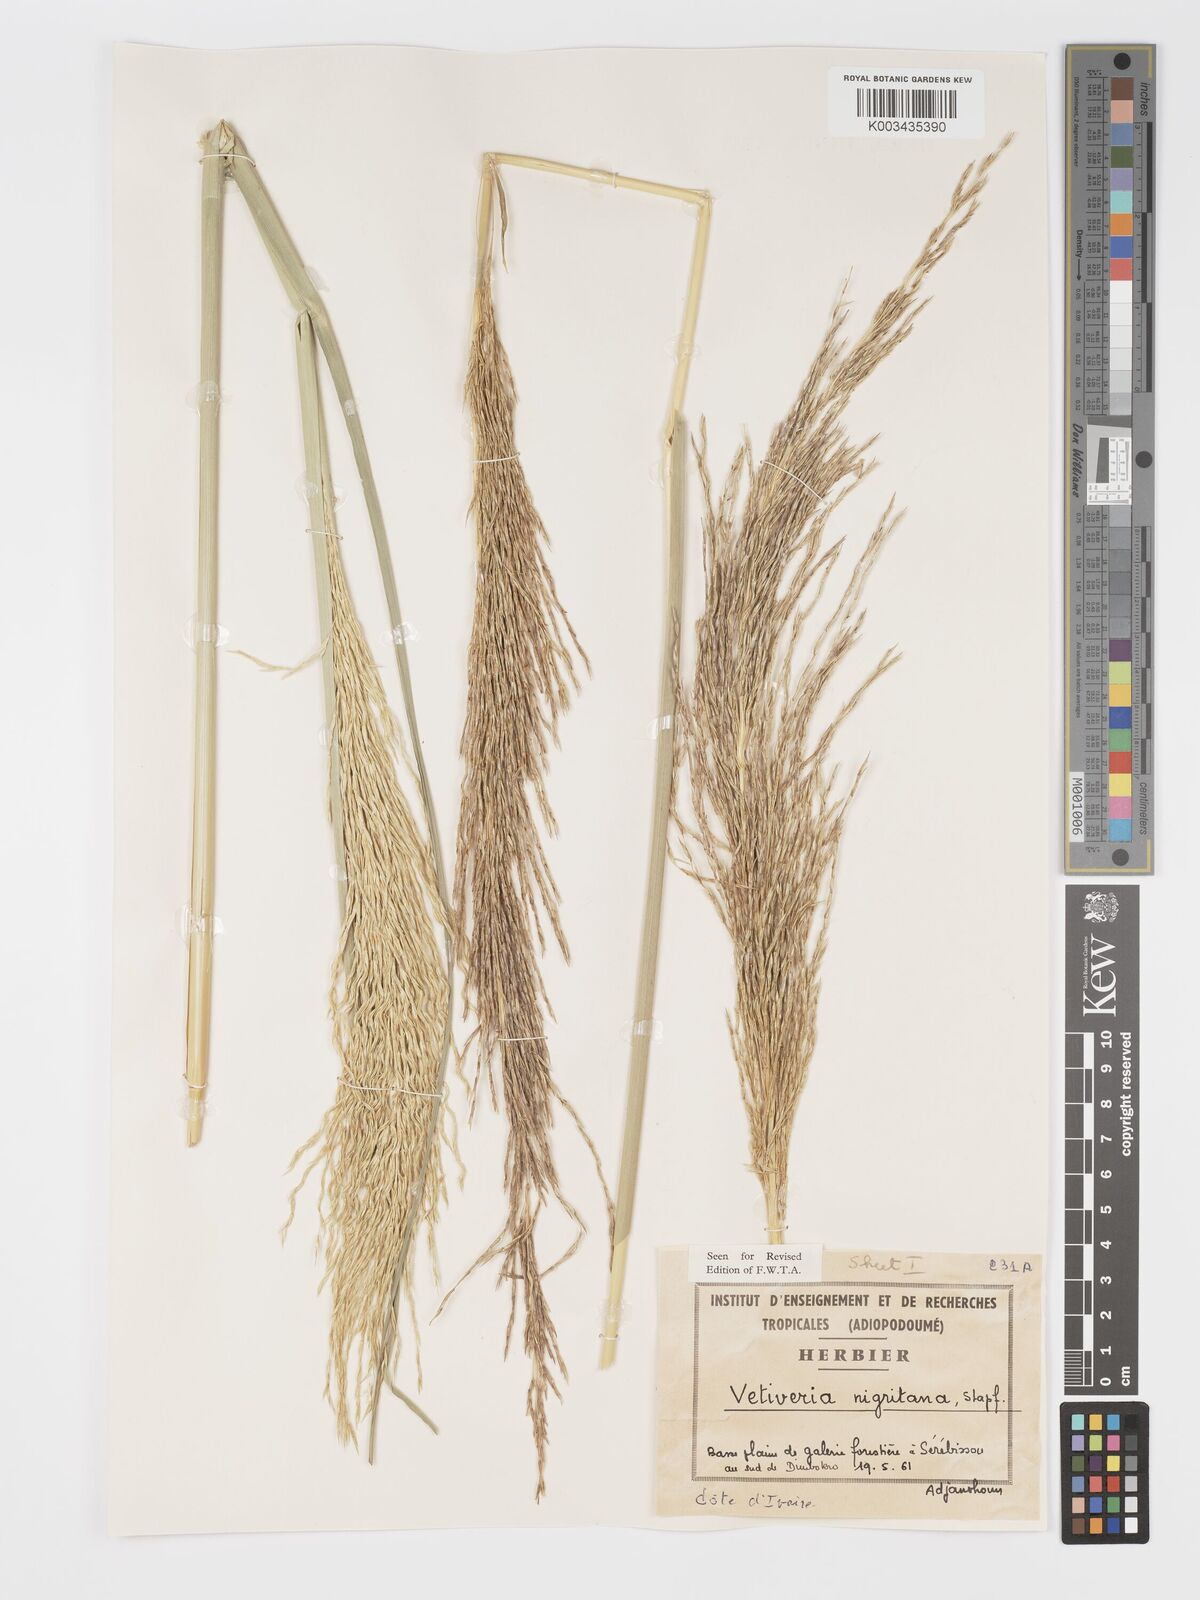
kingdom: Plantae
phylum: Tracheophyta
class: Liliopsida
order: Poales
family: Poaceae
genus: Chrysopogon
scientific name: Chrysopogon nigritanus
